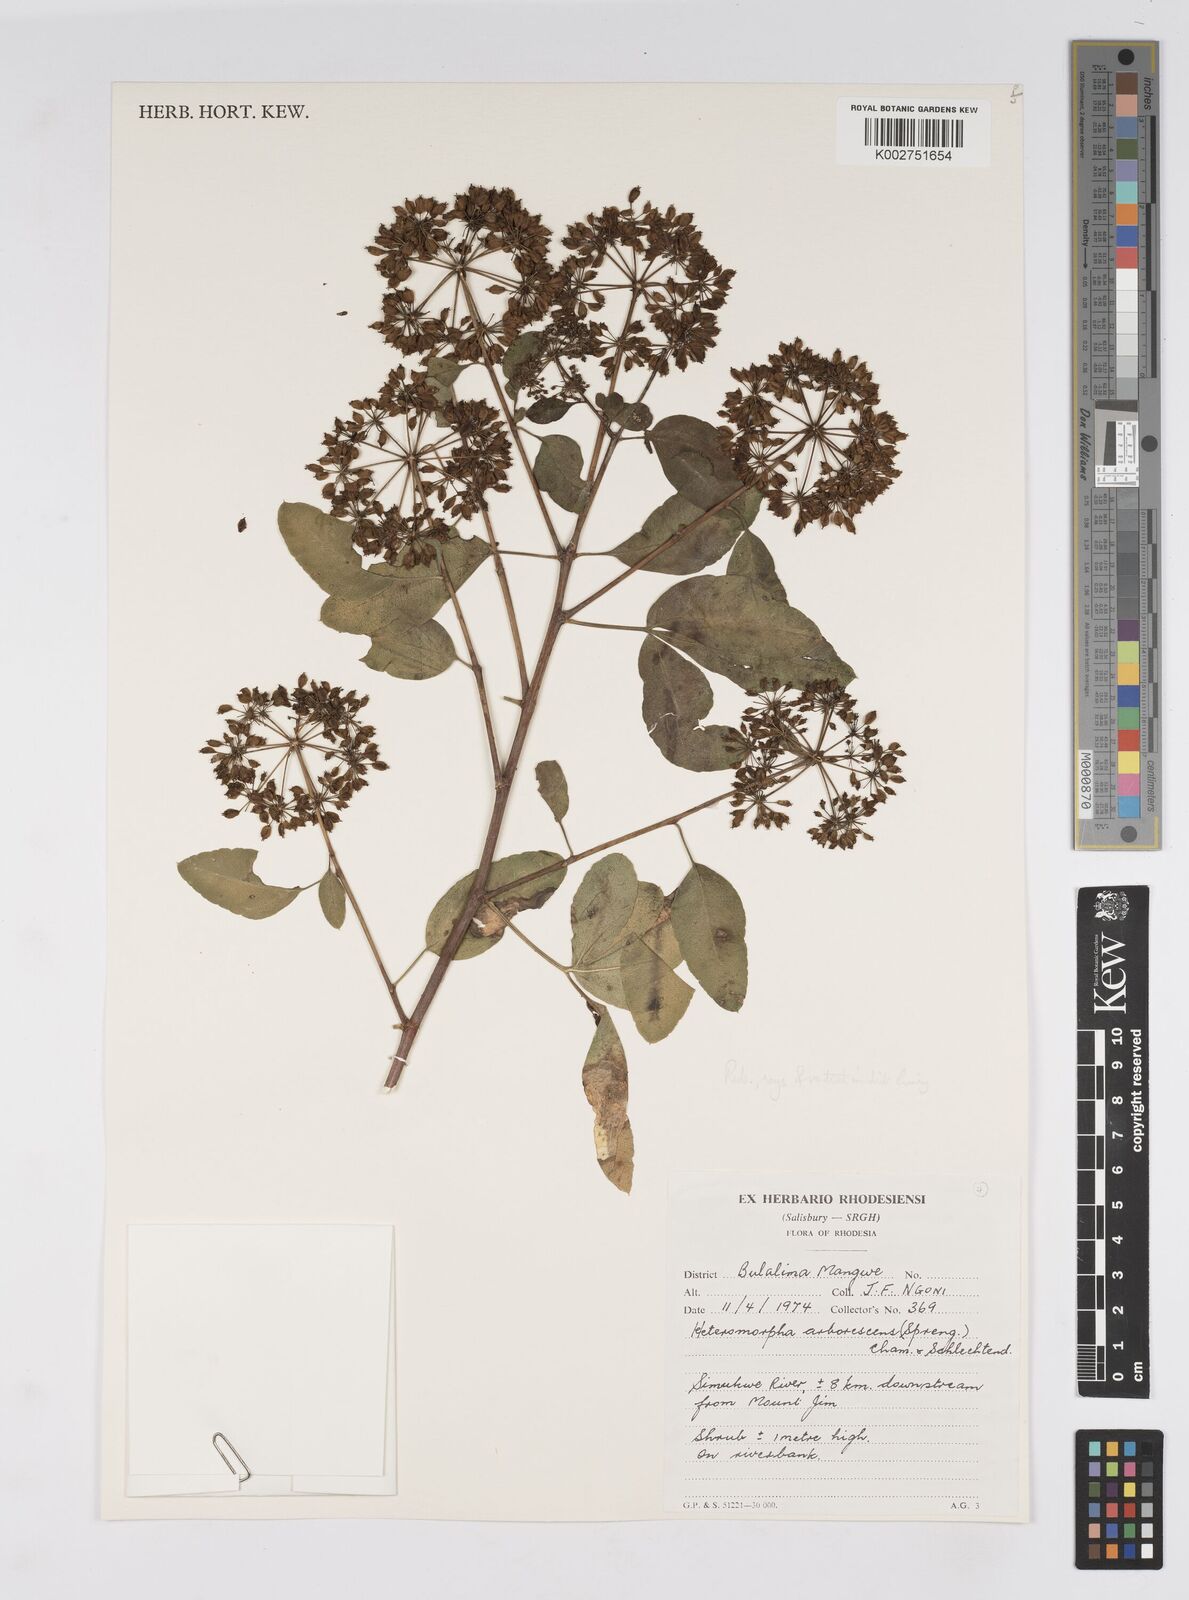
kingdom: Plantae
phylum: Tracheophyta
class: Magnoliopsida
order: Apiales
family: Apiaceae
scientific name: Apiaceae
